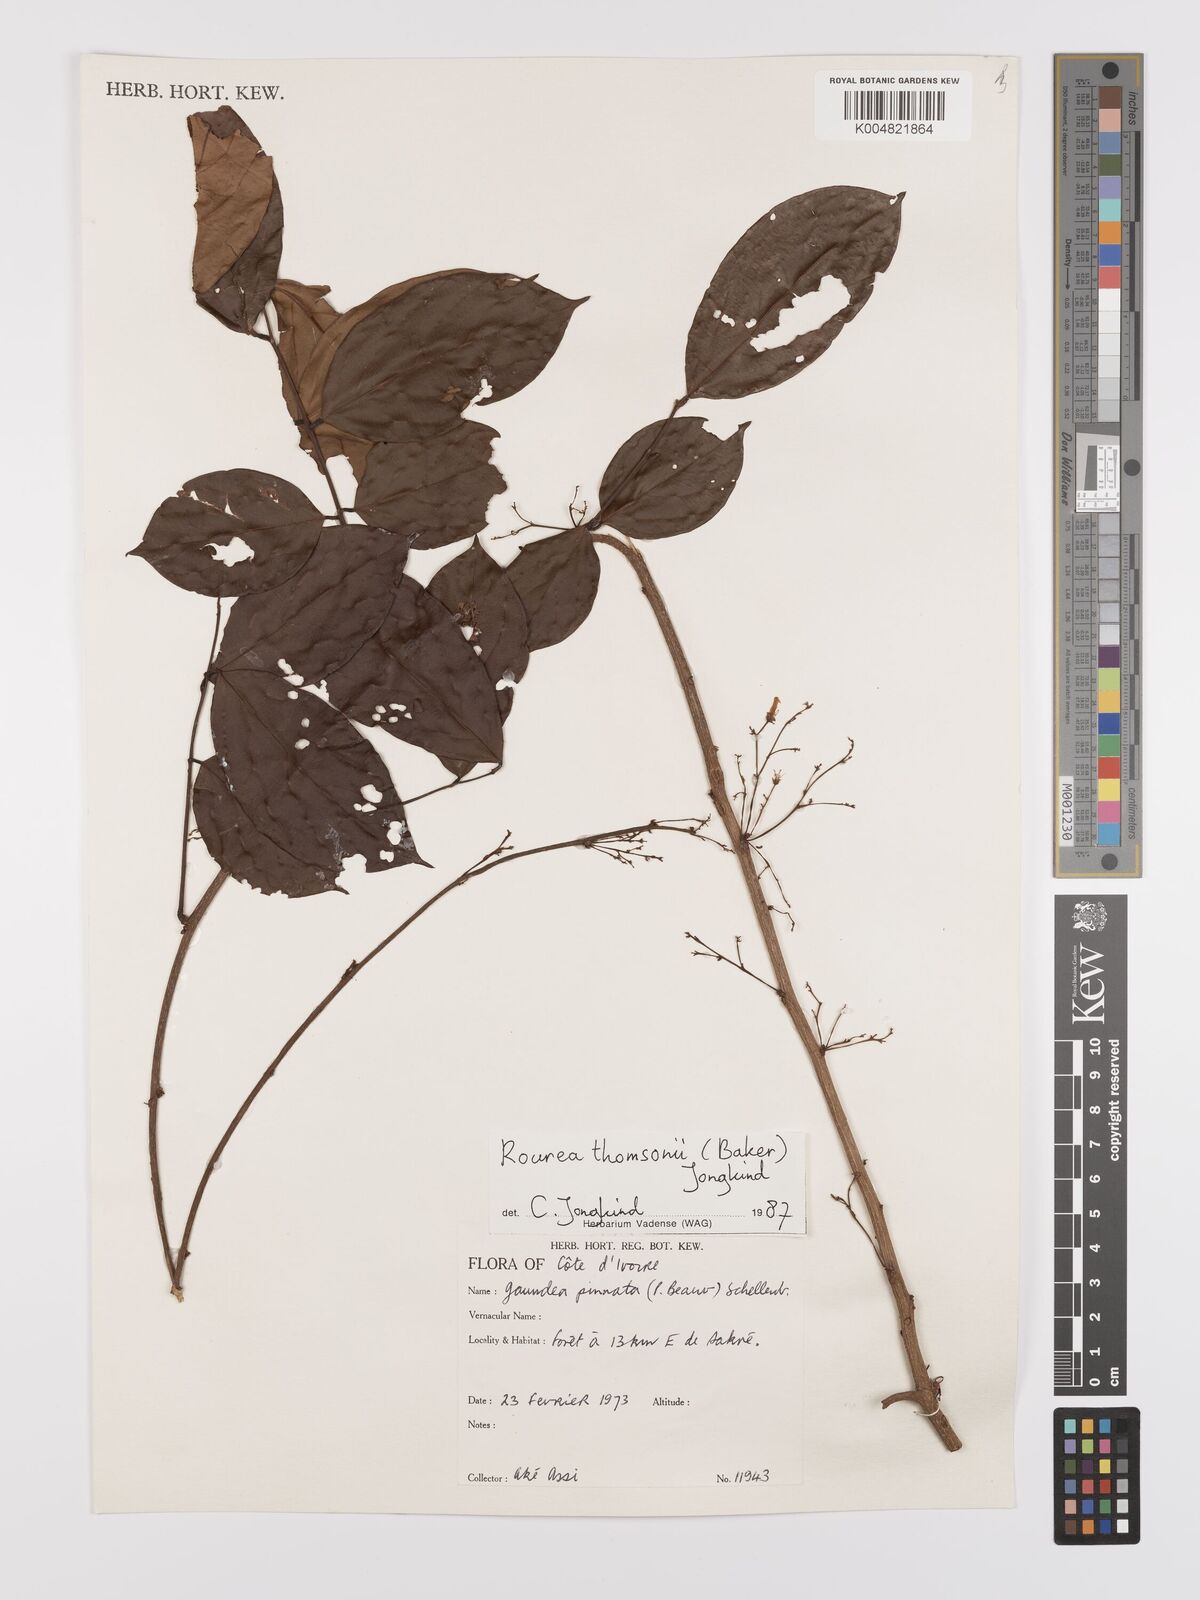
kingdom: Plantae
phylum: Tracheophyta
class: Magnoliopsida
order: Oxalidales
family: Connaraceae
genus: Rourea
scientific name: Rourea pinnata
